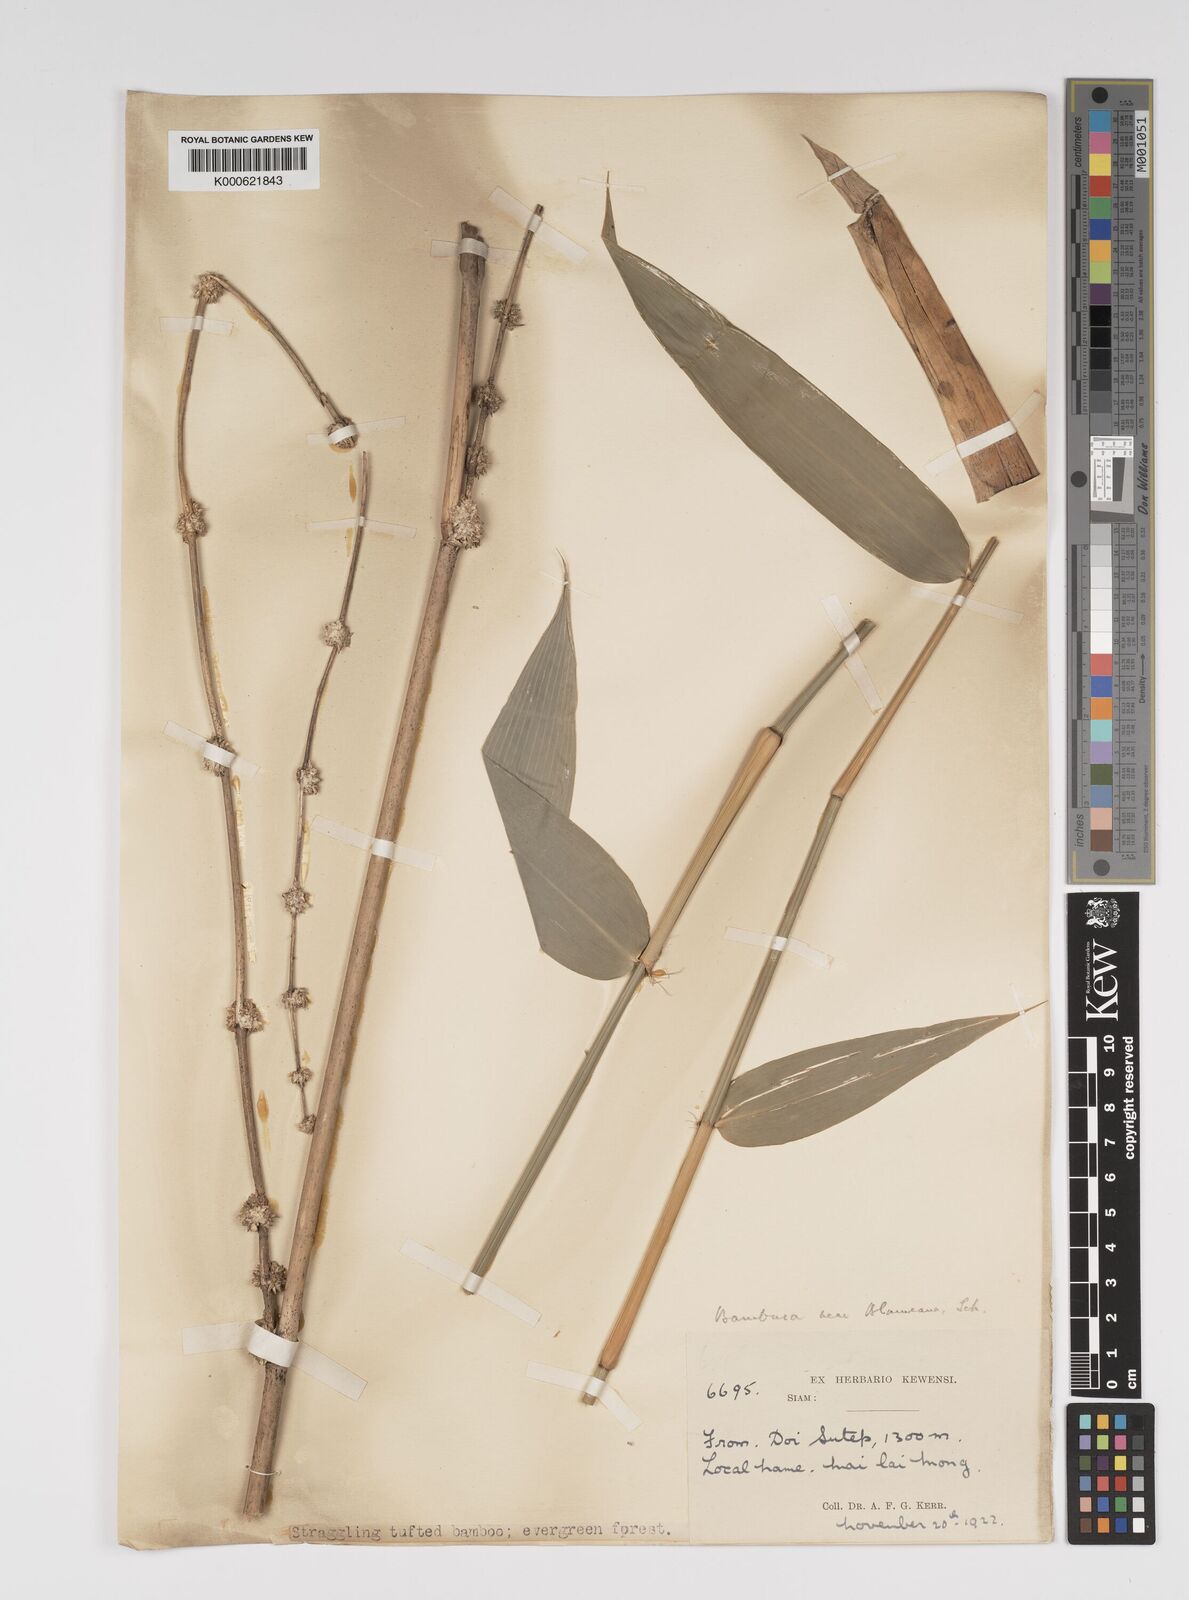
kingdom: Plantae
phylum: Tracheophyta
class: Liliopsida
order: Poales
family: Poaceae
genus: Bambusa
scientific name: Bambusa sesquiflora
